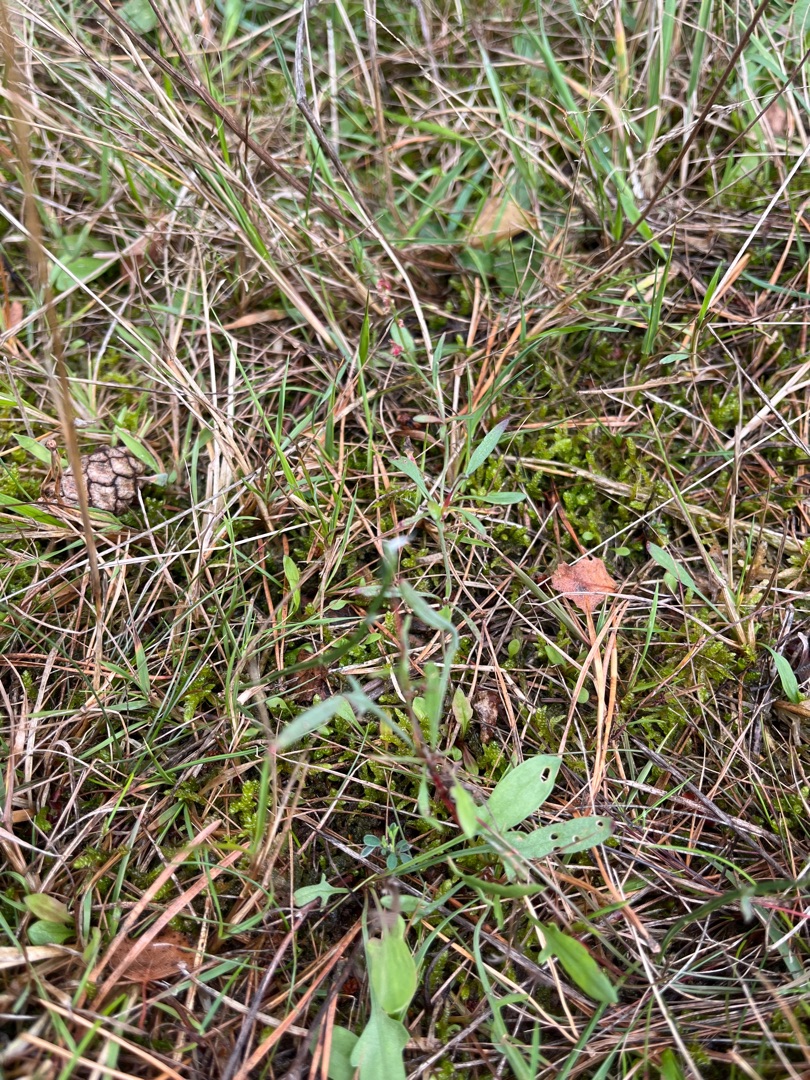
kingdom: Plantae
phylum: Tracheophyta
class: Magnoliopsida
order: Caryophyllales
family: Polygonaceae
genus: Rumex
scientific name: Rumex acetosella
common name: Rødknæ
